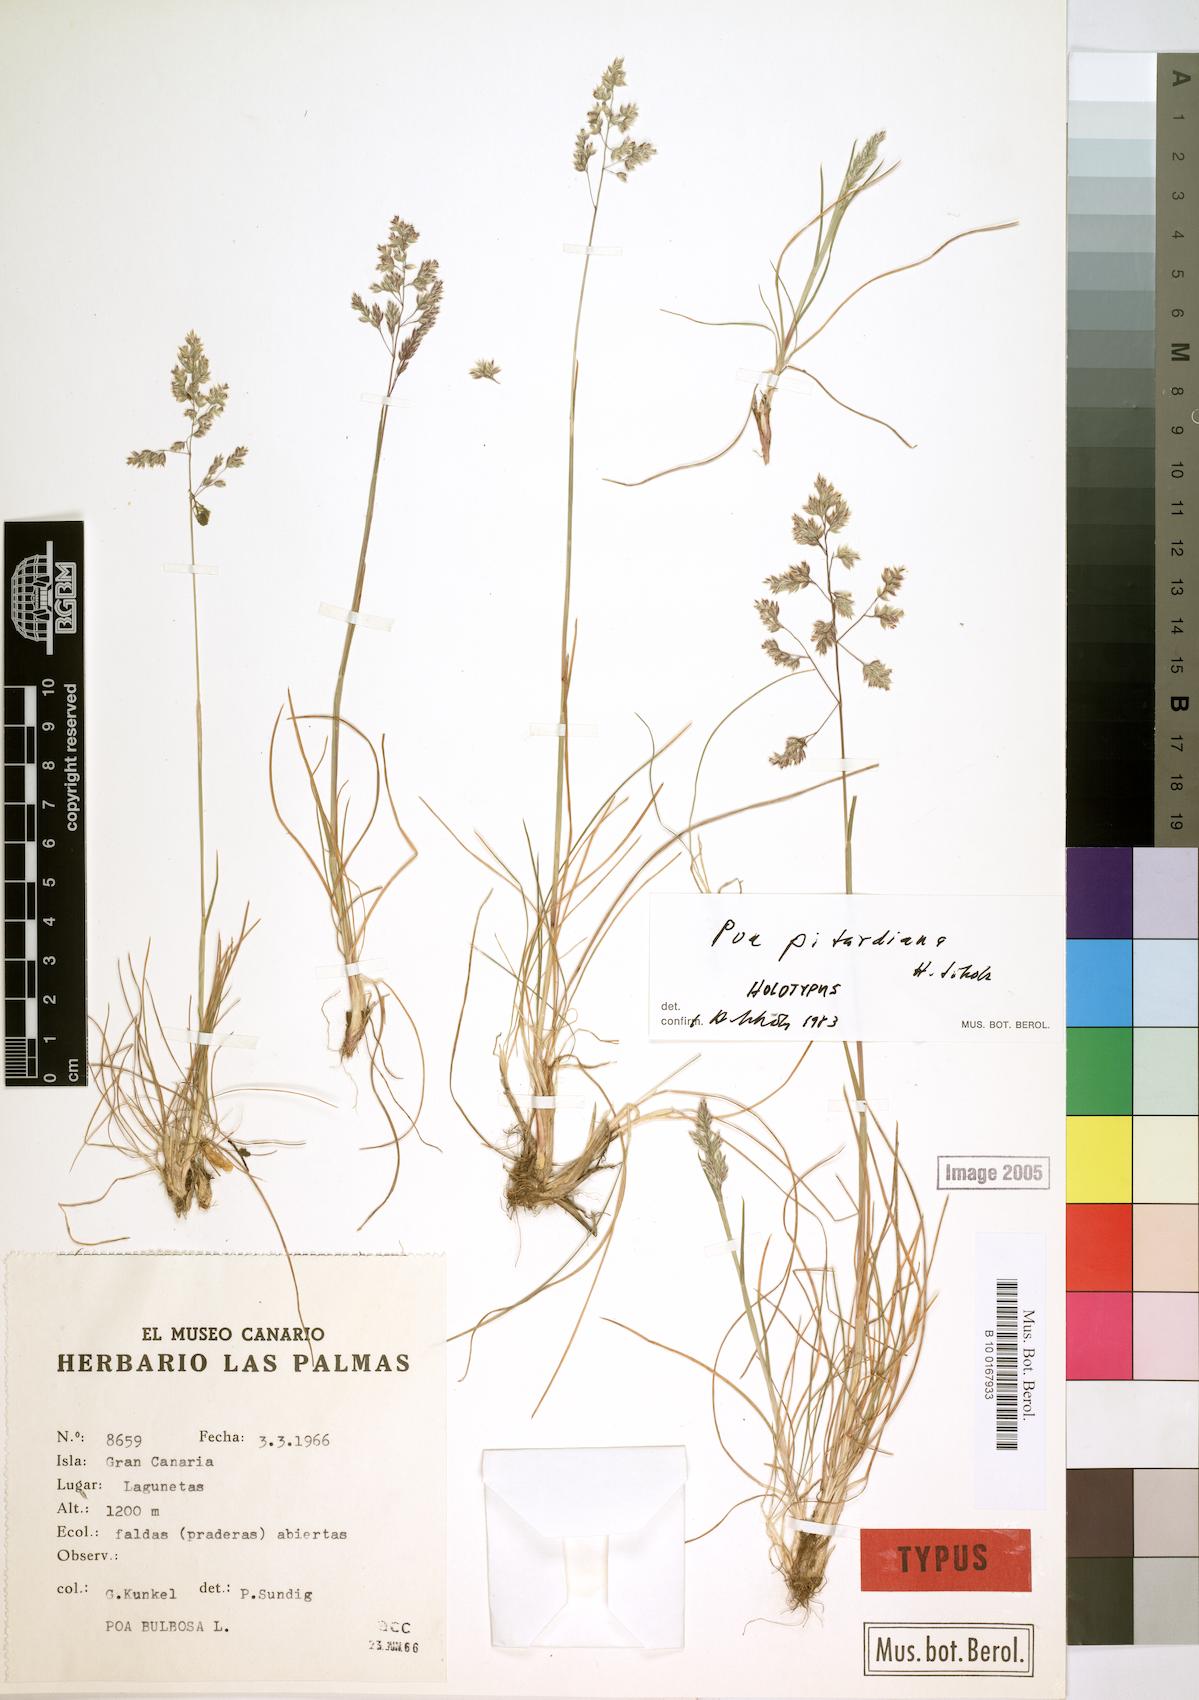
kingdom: Plantae
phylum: Tracheophyta
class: Liliopsida
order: Poales
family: Poaceae
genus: Poa
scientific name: Poa pitardiana
